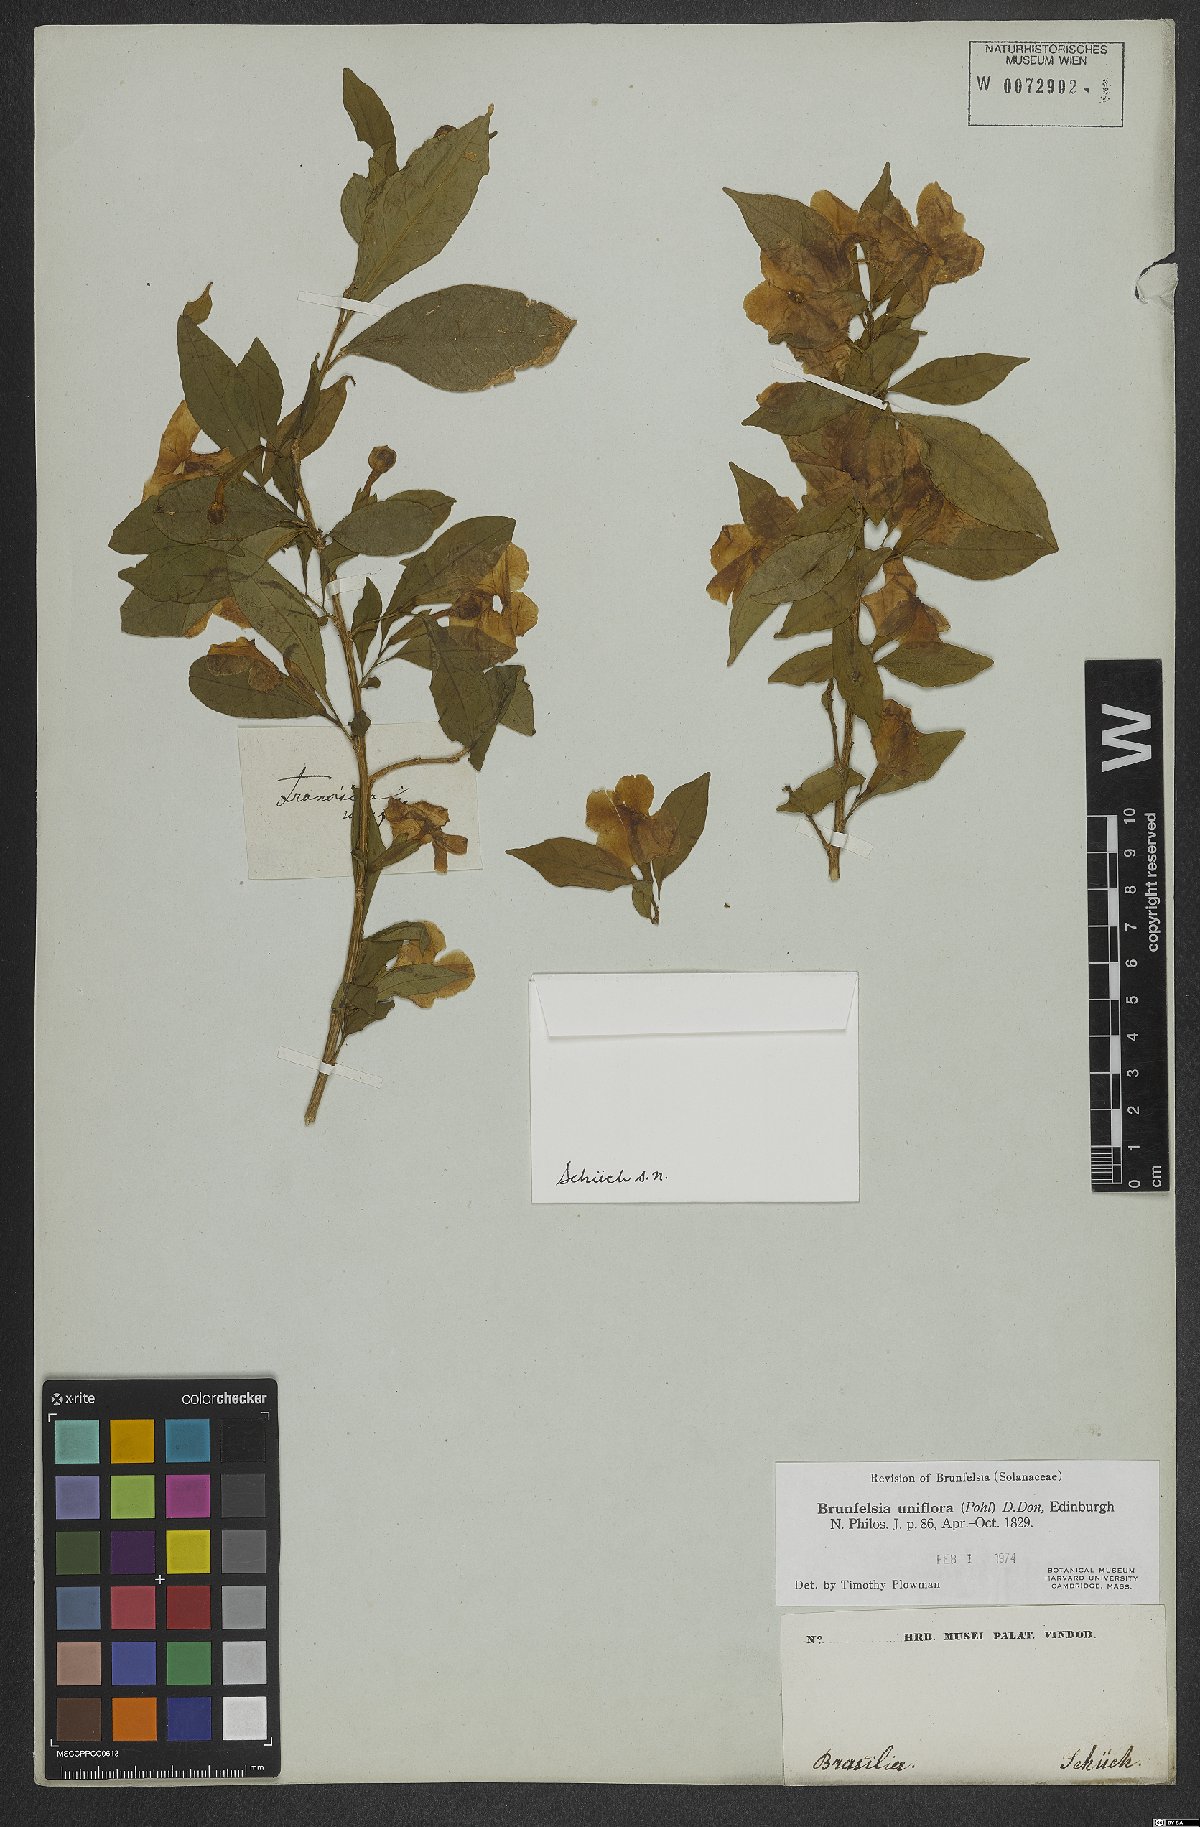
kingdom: Plantae
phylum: Tracheophyta
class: Magnoliopsida
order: Solanales
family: Solanaceae
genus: Brunfelsia
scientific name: Brunfelsia uniflora
